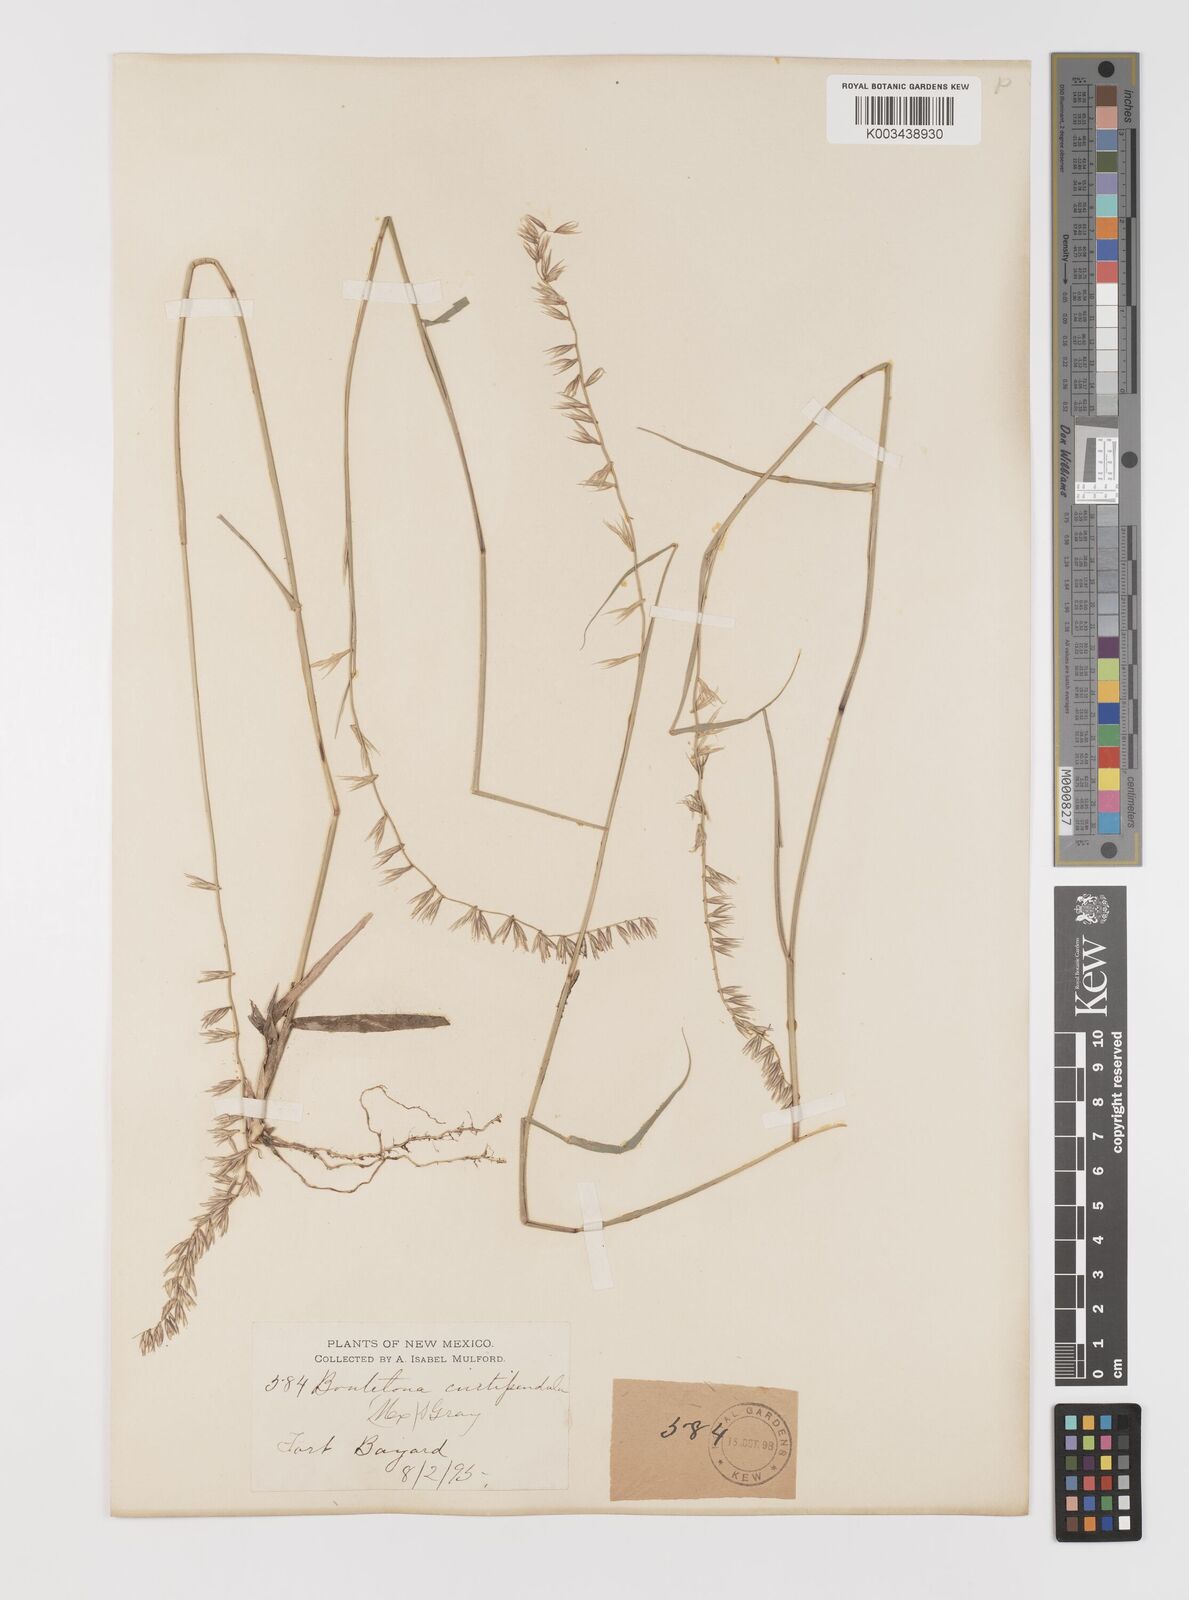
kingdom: Plantae
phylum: Tracheophyta
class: Liliopsida
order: Poales
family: Poaceae
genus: Bouteloua
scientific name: Bouteloua curtipendula
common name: Side-oats grama
